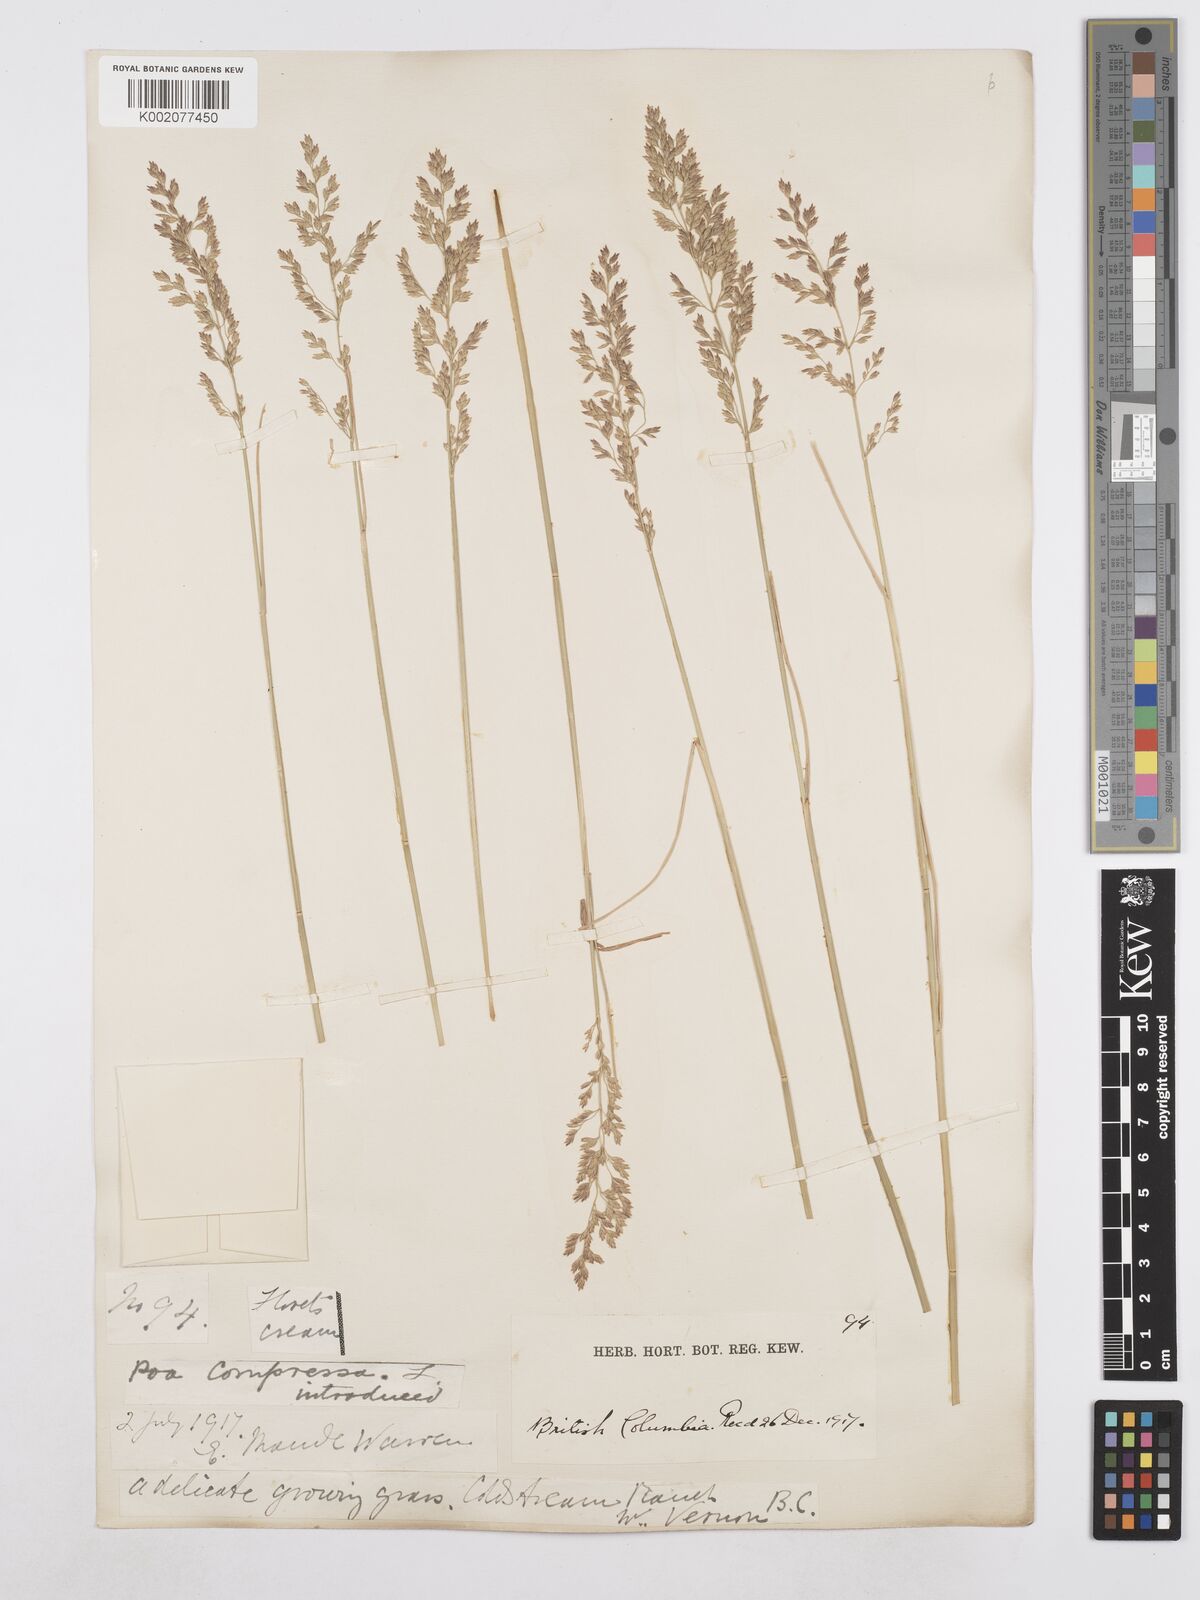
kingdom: Plantae
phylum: Tracheophyta
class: Liliopsida
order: Poales
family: Poaceae
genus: Poa
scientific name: Poa compressa
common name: Canada bluegrass
